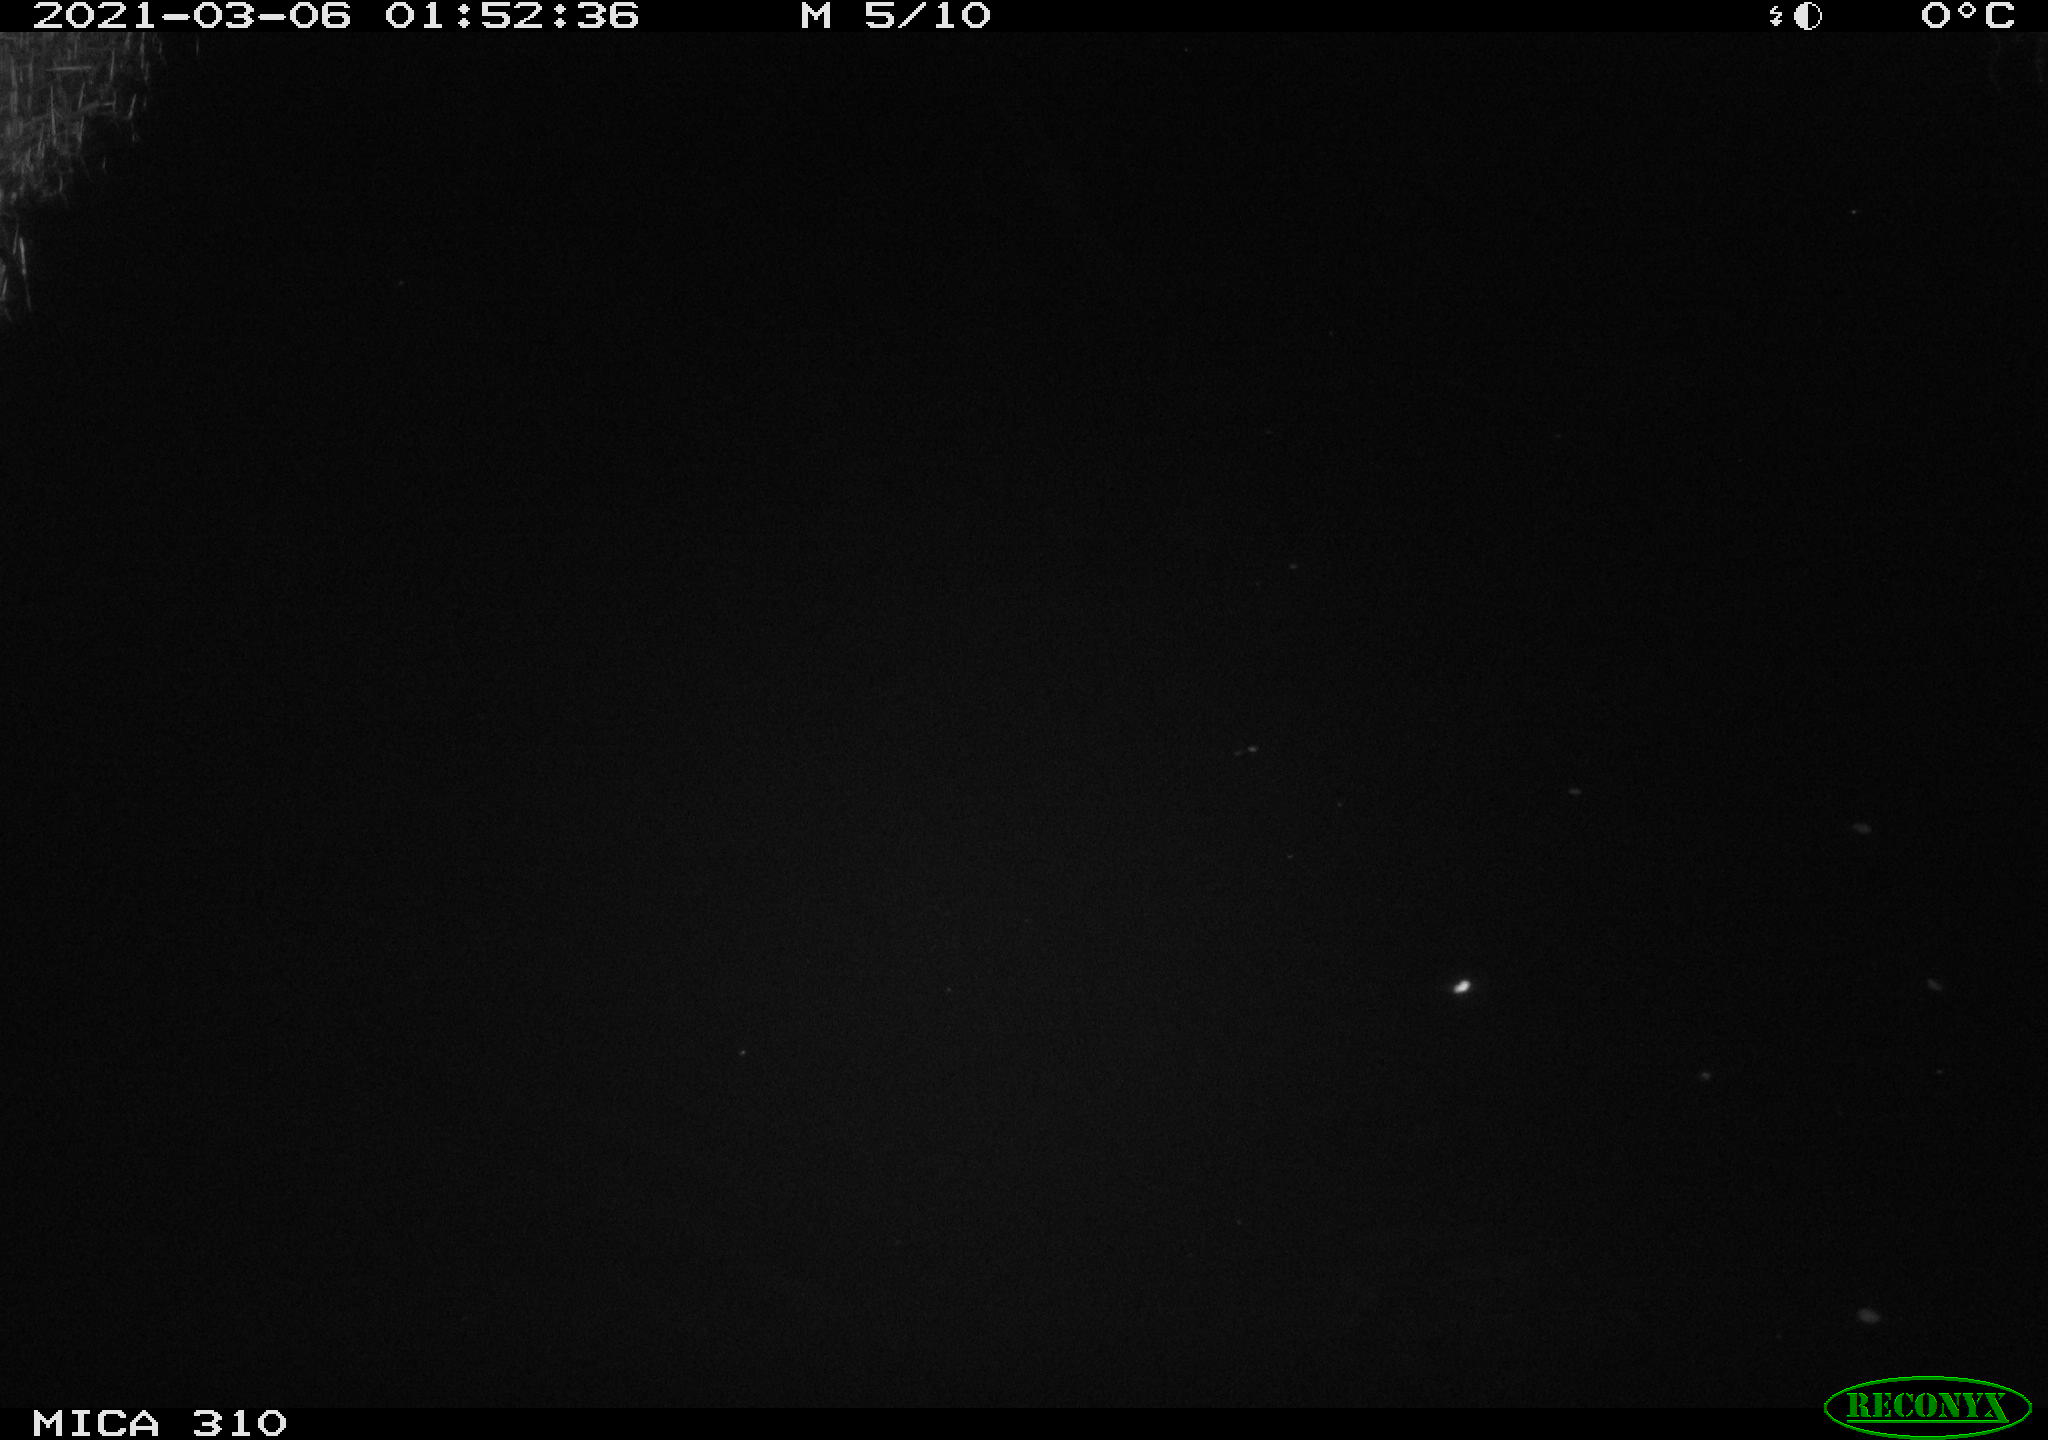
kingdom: Animalia
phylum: Chordata
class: Aves
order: Anseriformes
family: Anatidae
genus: Anas
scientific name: Anas platyrhynchos
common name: Mallard
